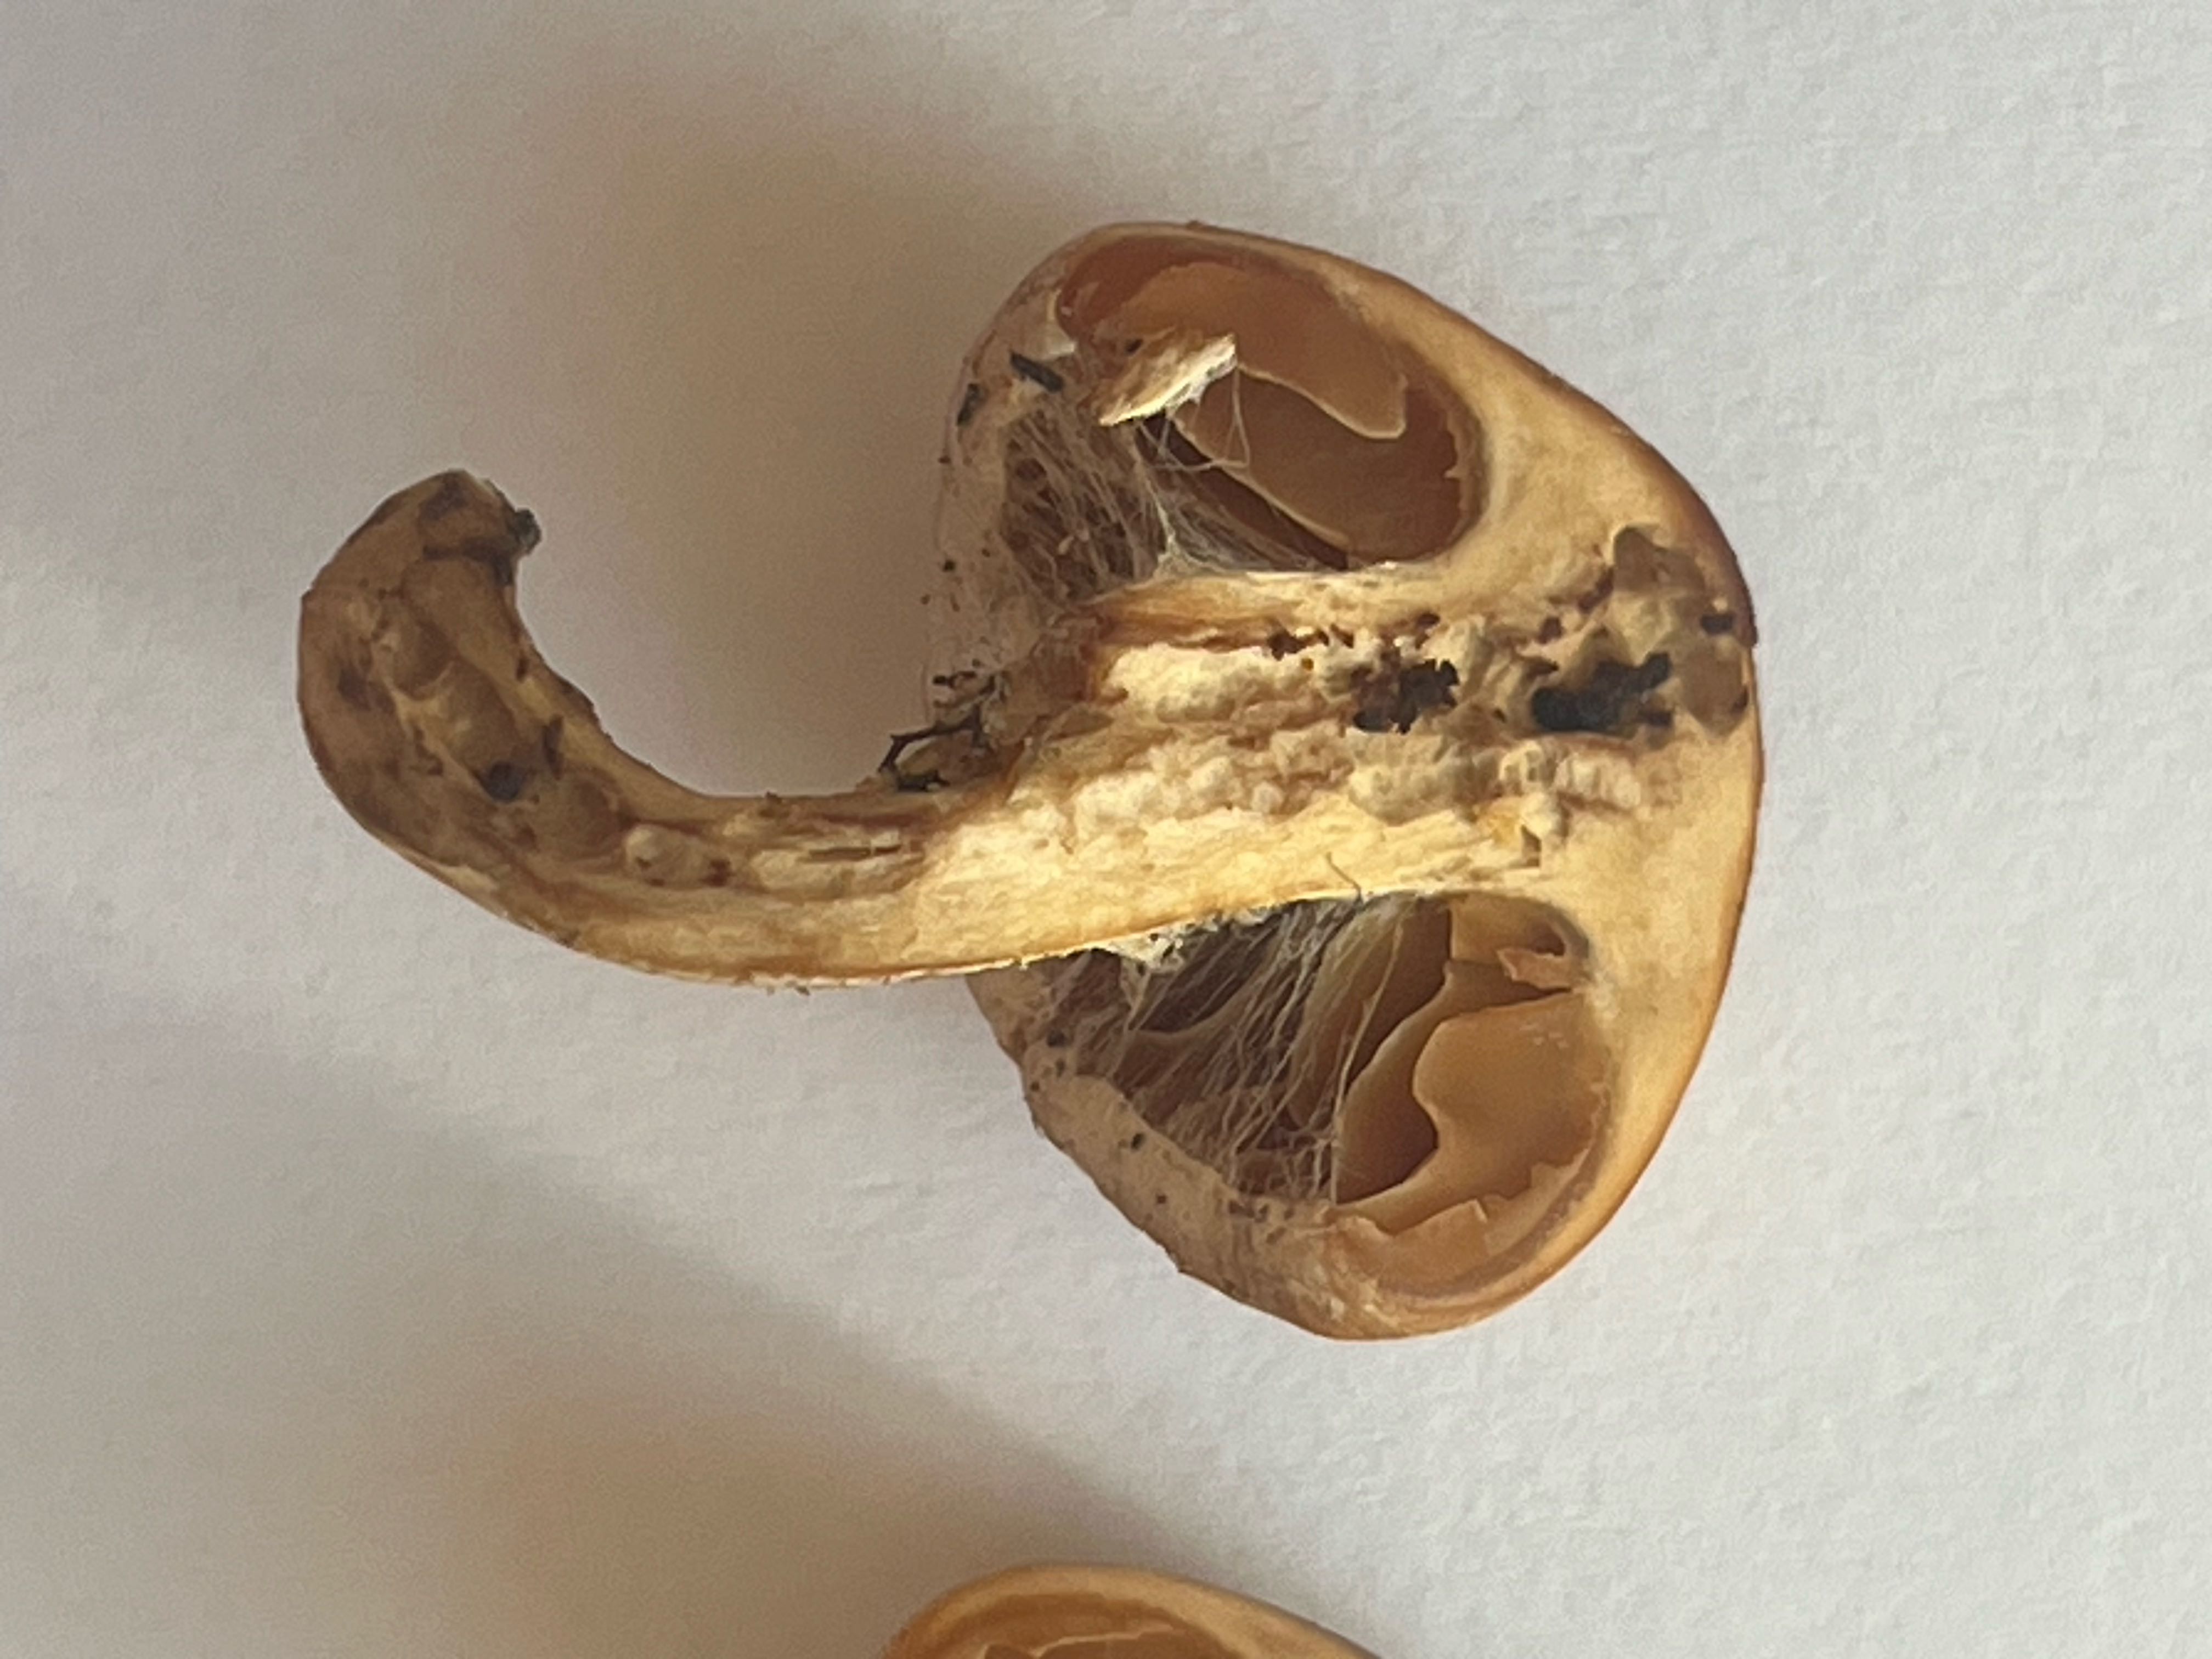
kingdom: Fungi
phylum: Basidiomycota
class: Agaricomycetes
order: Agaricales
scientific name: Agaricales
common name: champignonordenen
